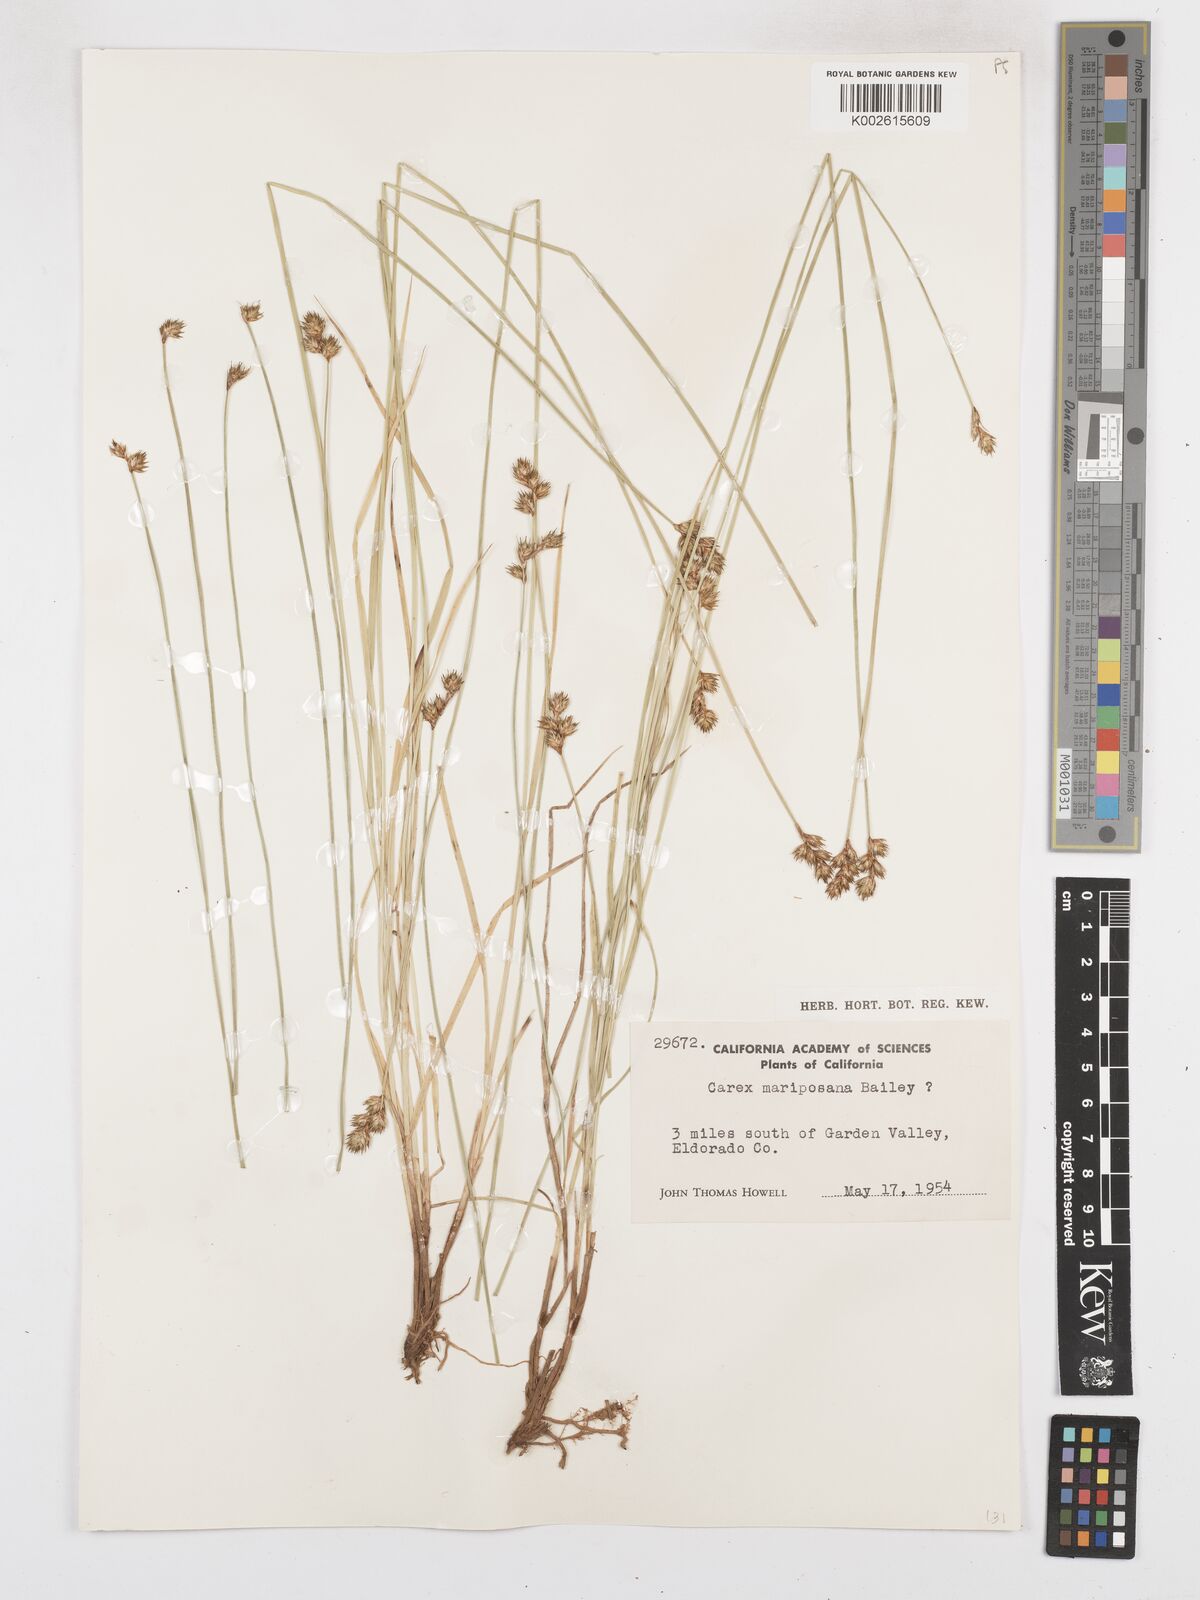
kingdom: Plantae
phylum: Tracheophyta
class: Liliopsida
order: Poales
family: Cyperaceae
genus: Carex
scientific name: Carex mariposana
